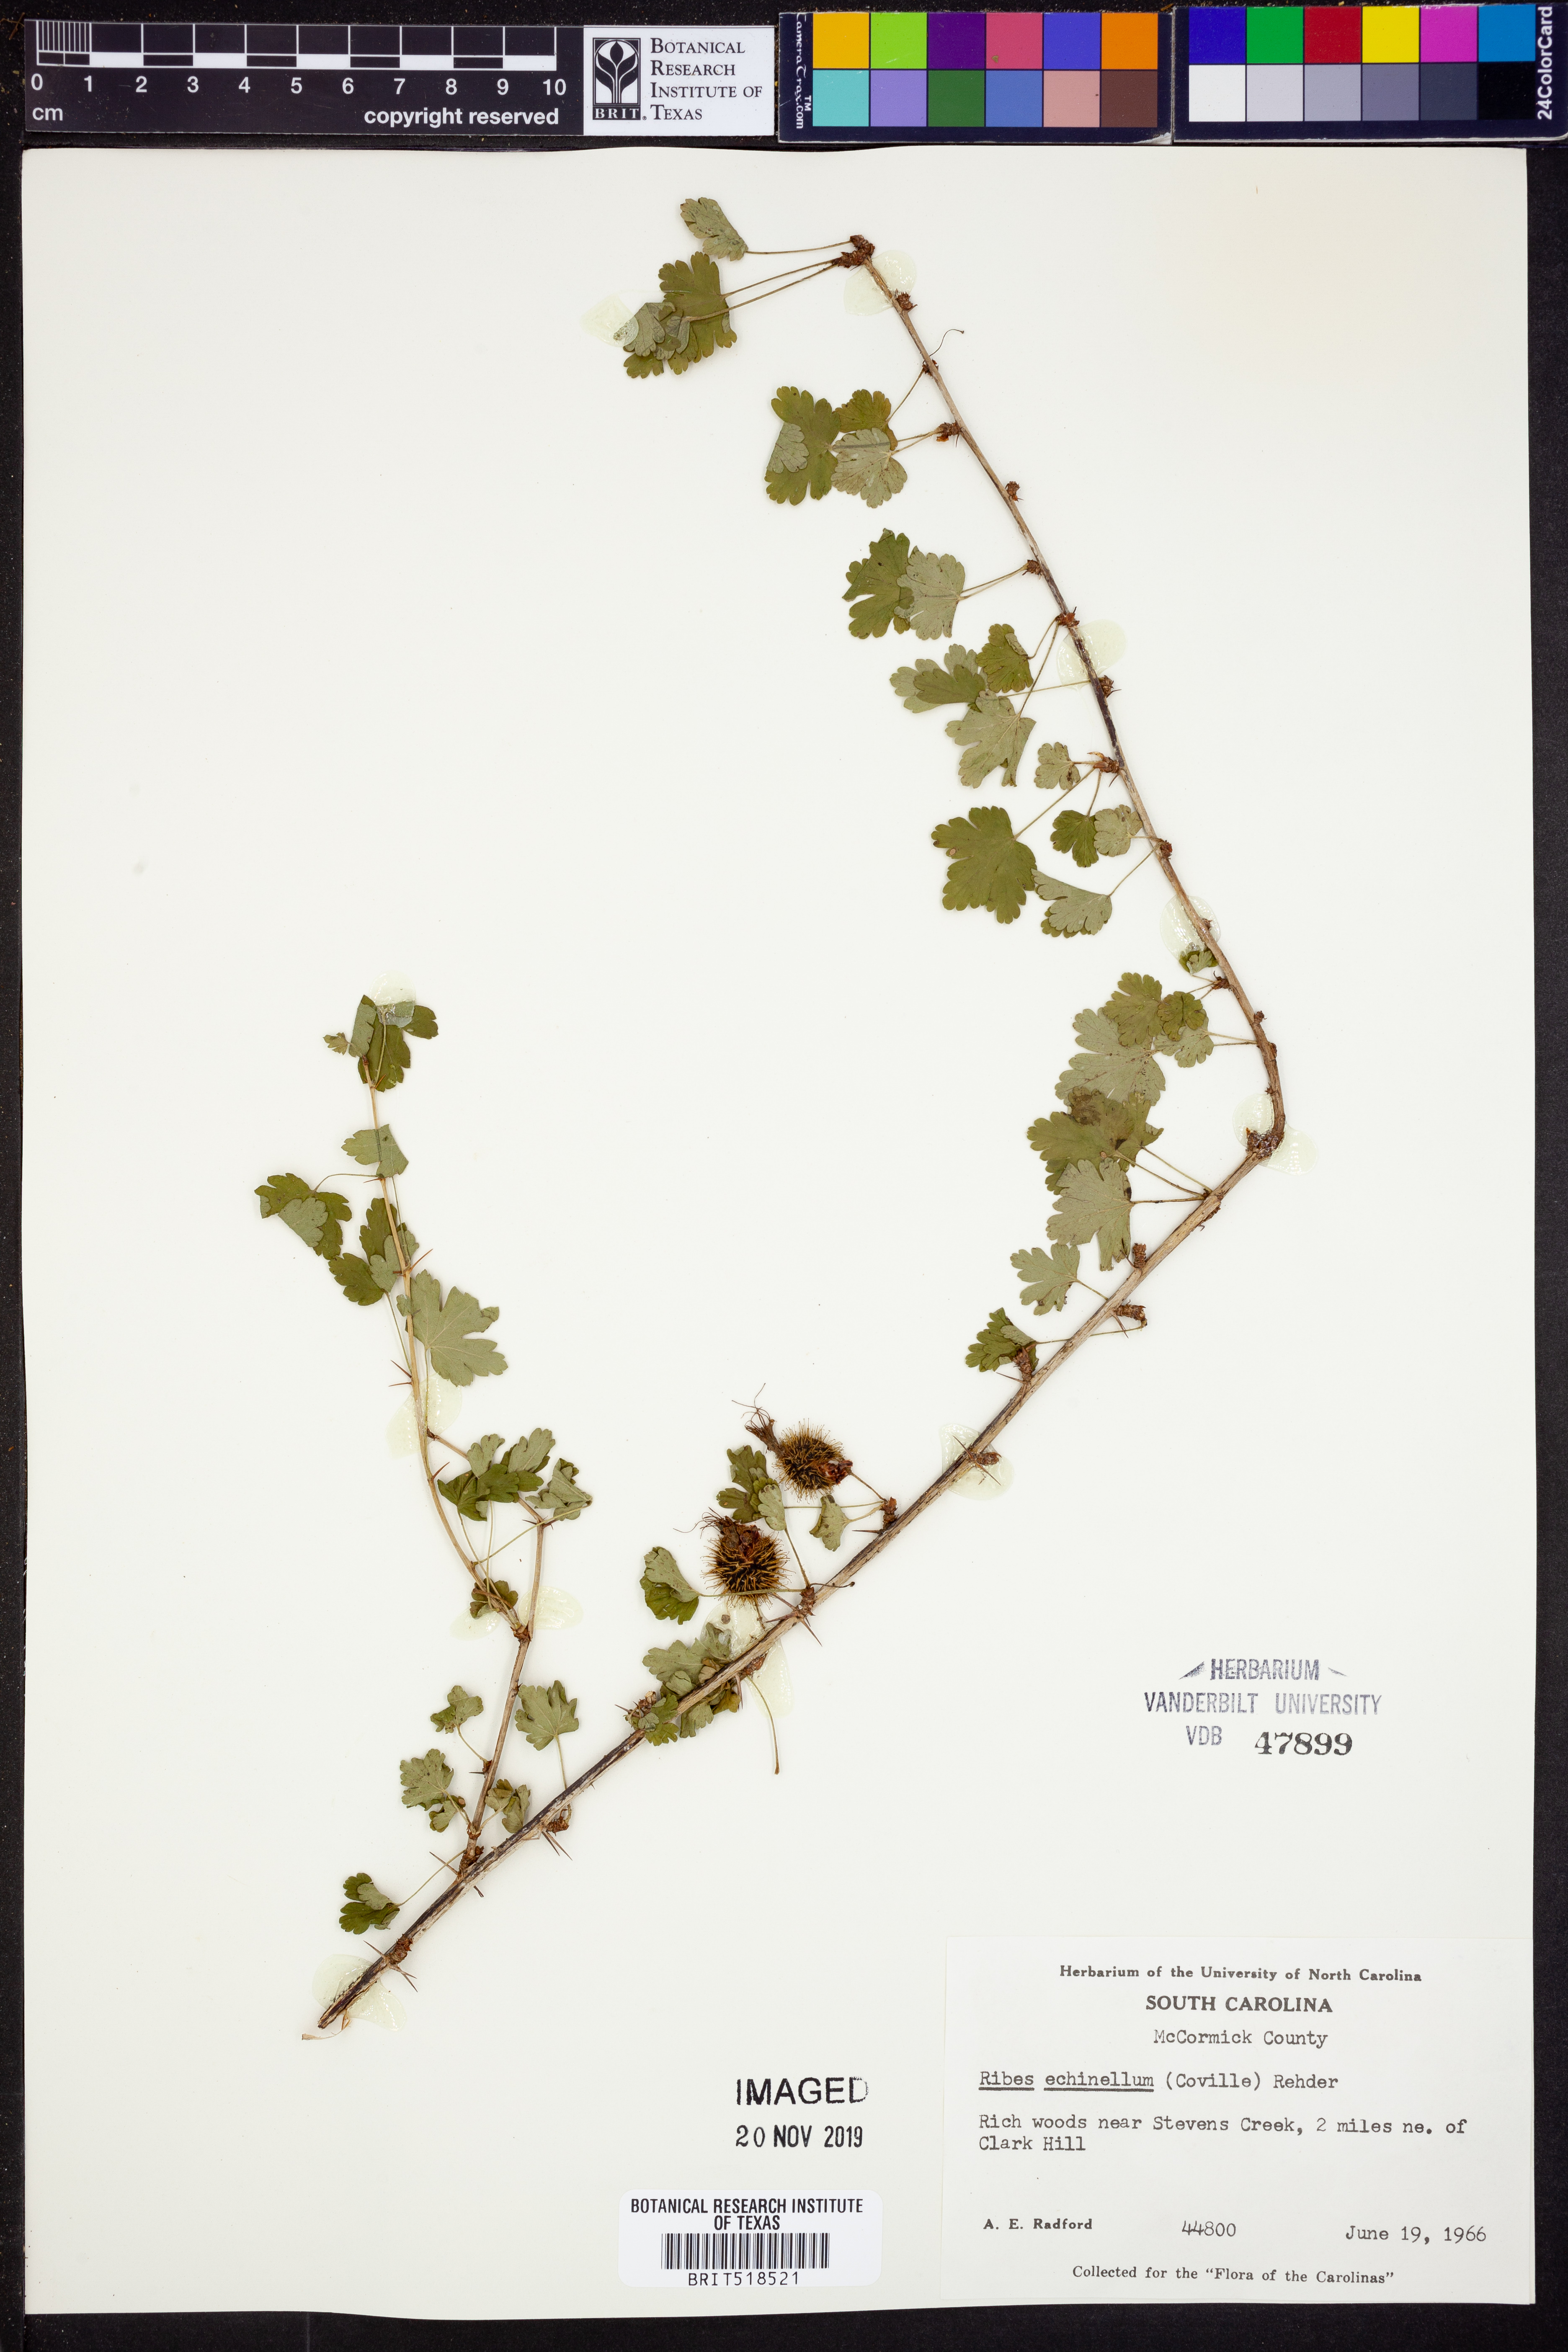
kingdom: Plantae
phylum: Tracheophyta
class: Magnoliopsida
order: Saxifragales
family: Grossulariaceae
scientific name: Grossulariaceae
